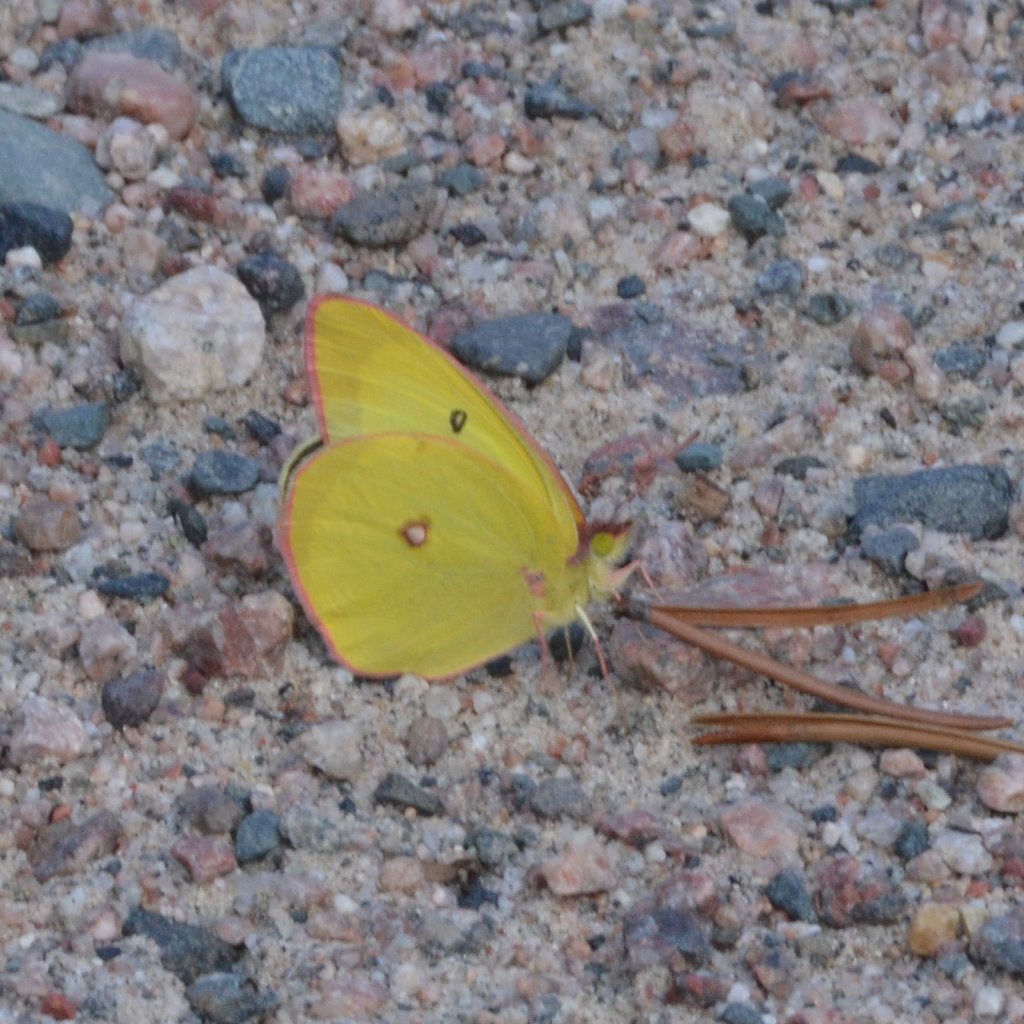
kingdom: Animalia
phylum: Arthropoda
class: Insecta
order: Lepidoptera
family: Pieridae
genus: Colias
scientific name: Colias interior
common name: Pink-edged Sulphur
